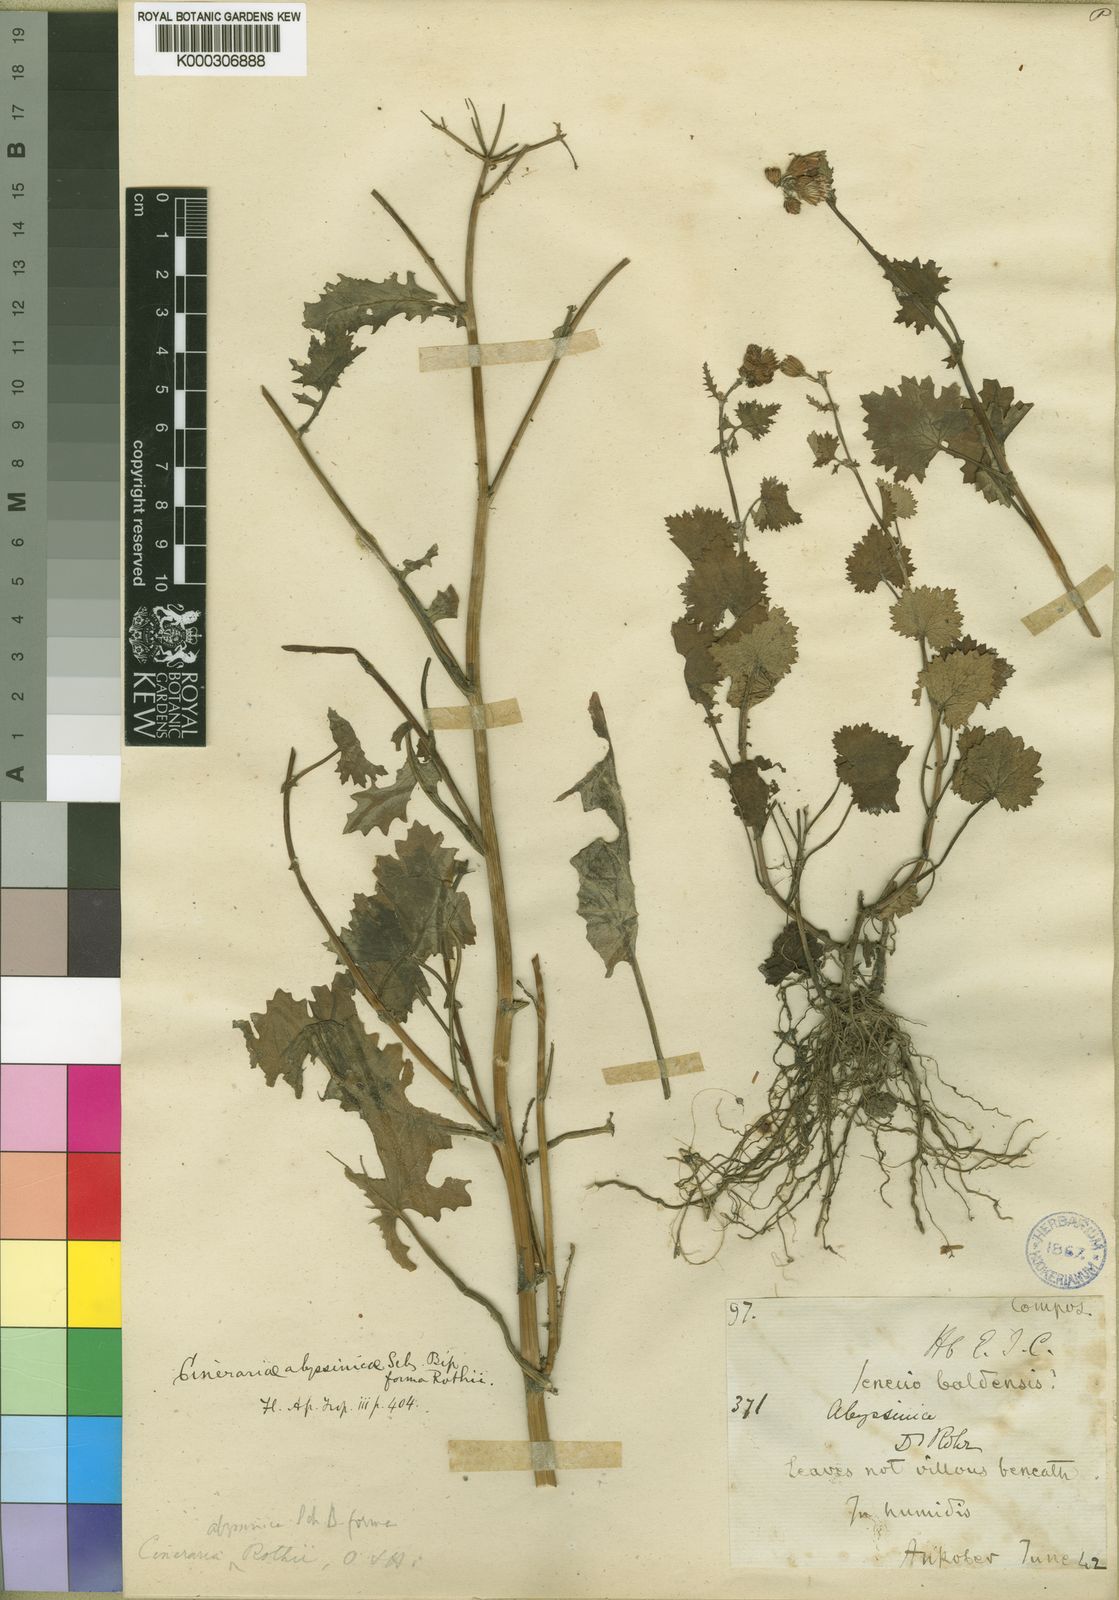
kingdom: Plantae
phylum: Tracheophyta
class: Magnoliopsida
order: Asterales
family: Asteraceae
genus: Cineraria
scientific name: Cineraria abyssinica
